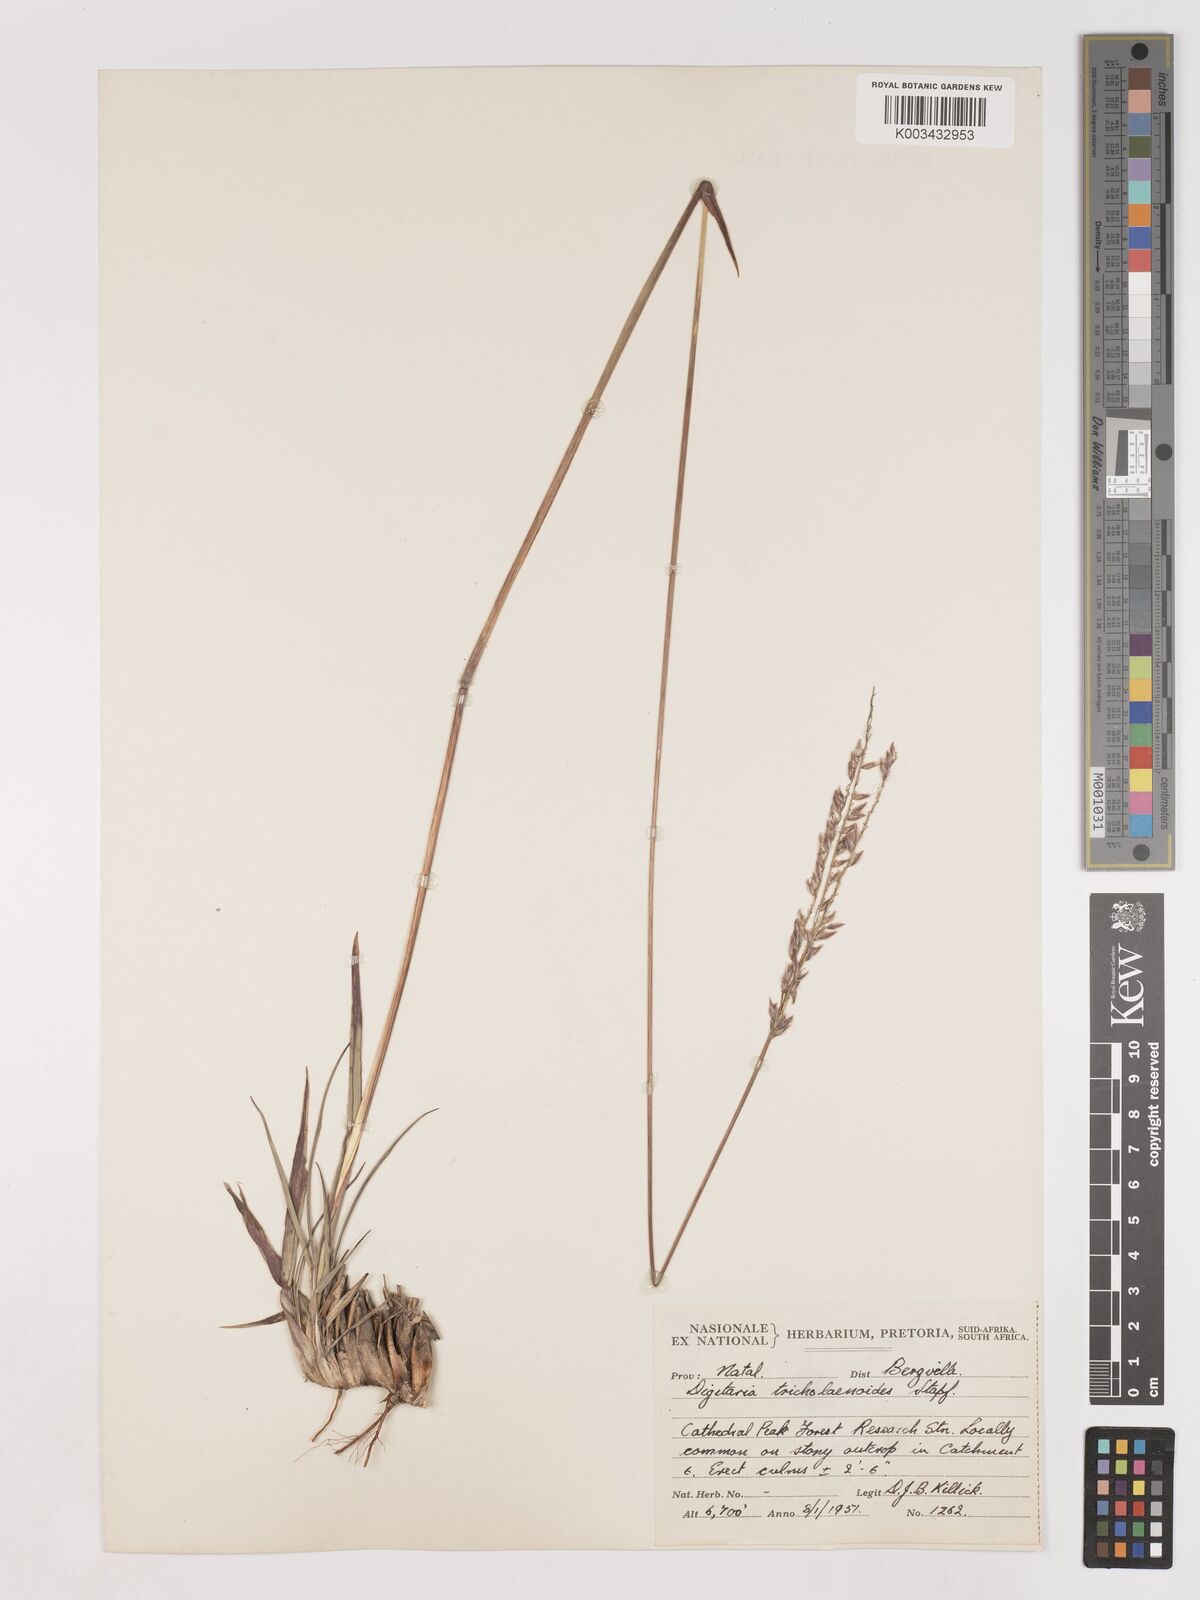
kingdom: Plantae
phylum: Tracheophyta
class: Liliopsida
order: Poales
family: Poaceae
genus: Digitaria
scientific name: Digitaria tricholaenoides
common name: Purple finger grass
